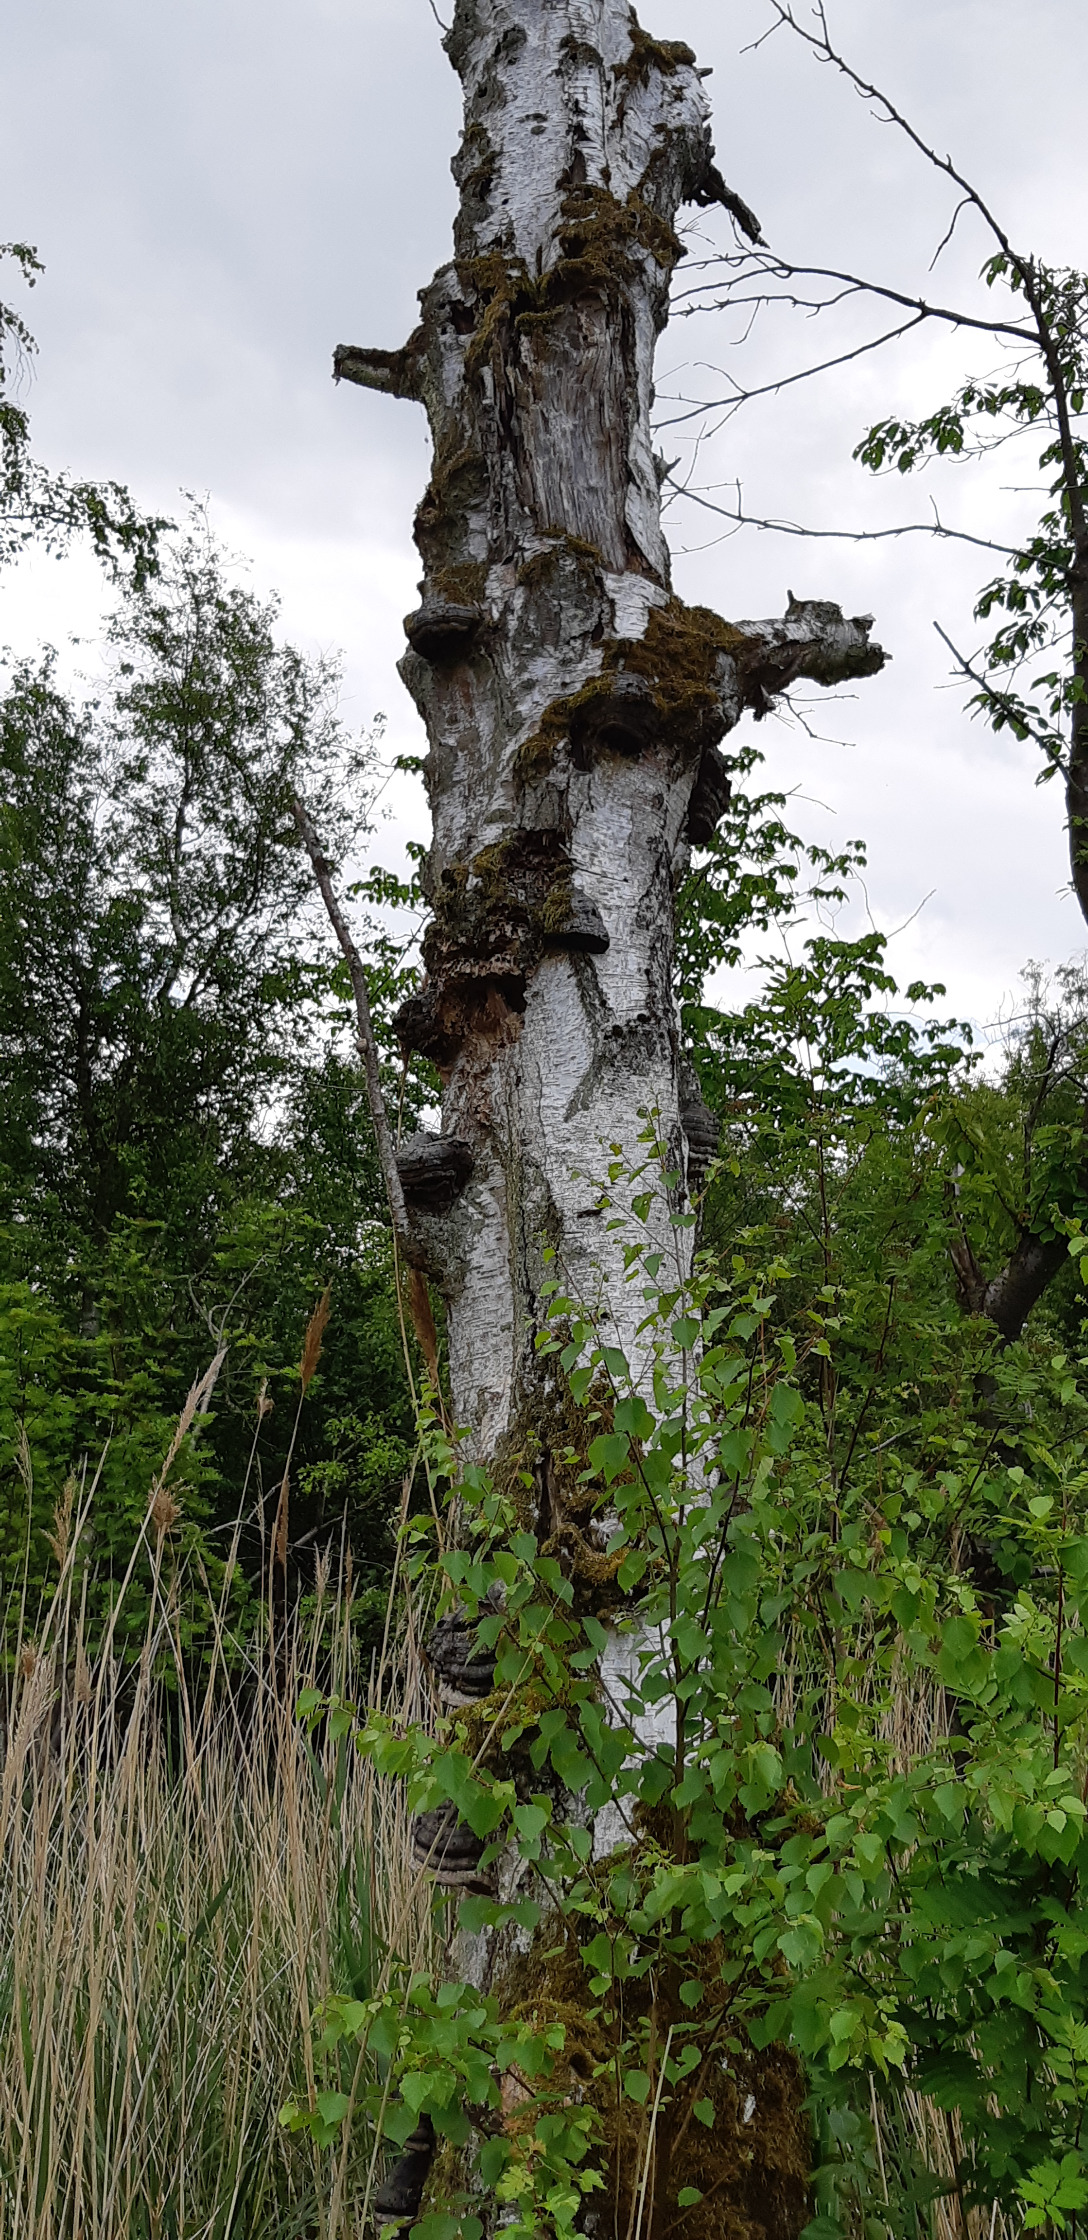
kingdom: Fungi
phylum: Basidiomycota
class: Agaricomycetes
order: Polyporales
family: Polyporaceae
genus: Fomes
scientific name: Fomes fomentarius
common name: Tøndersvamp
